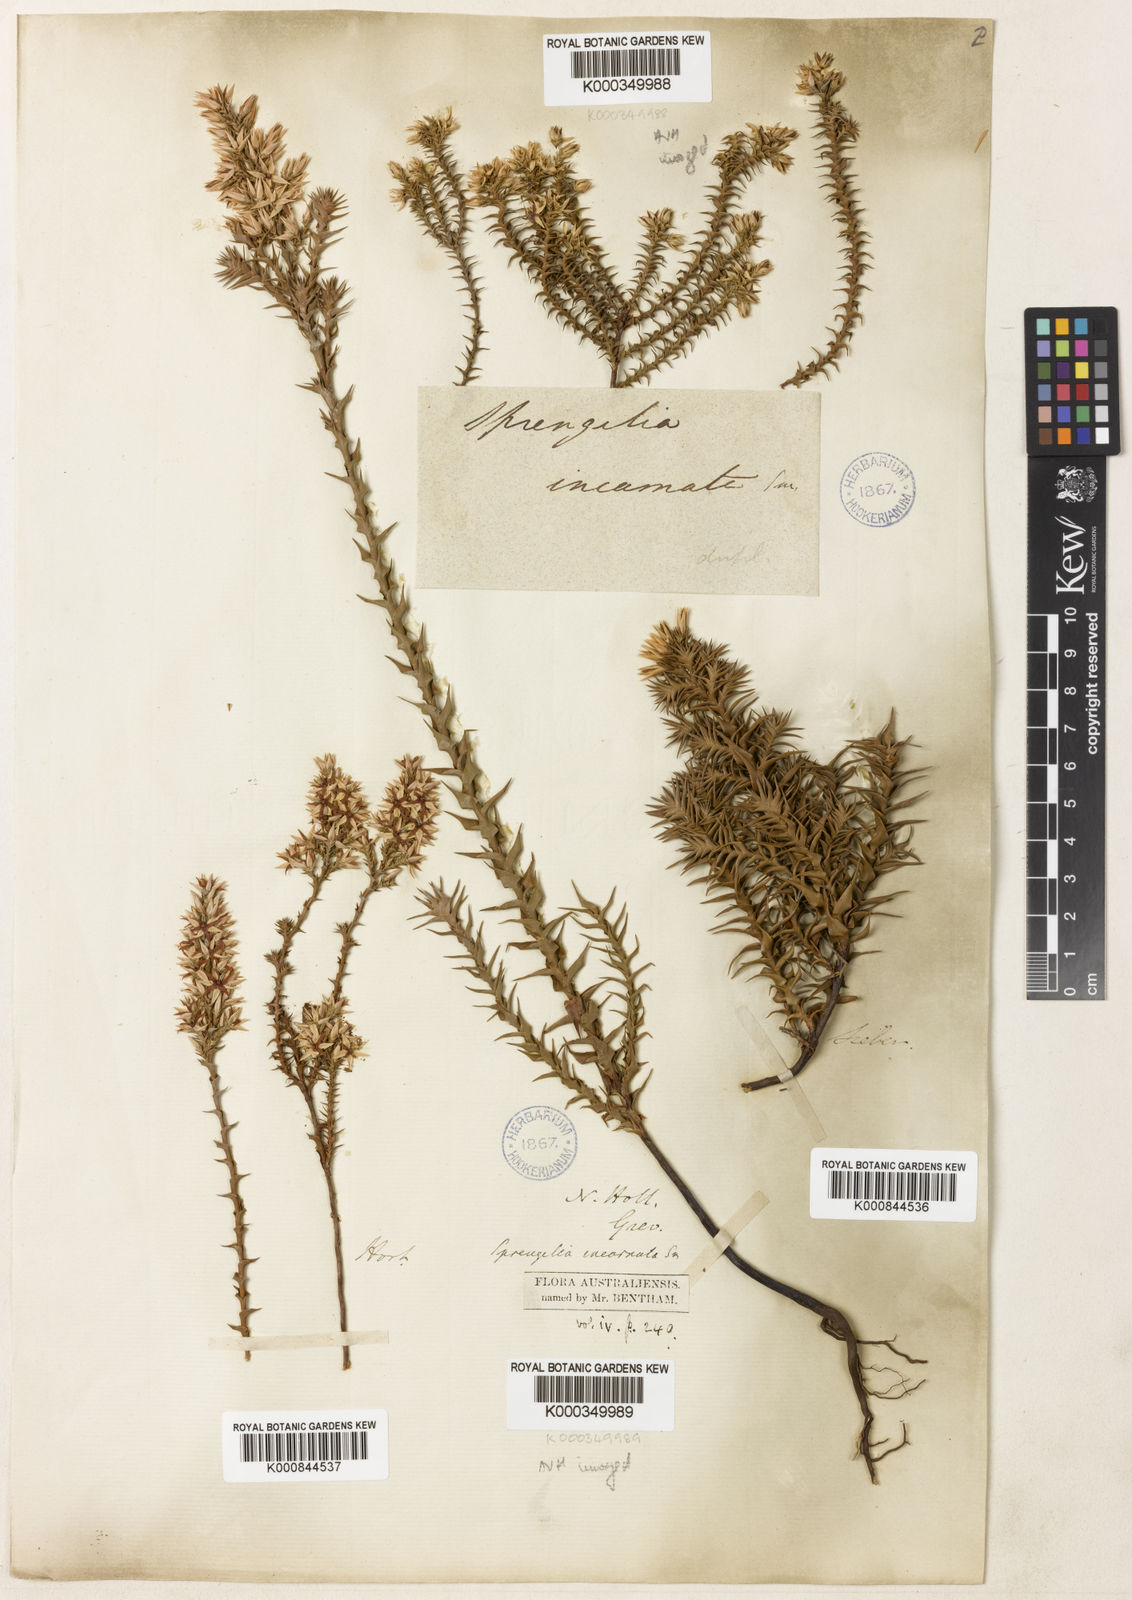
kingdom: Plantae
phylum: Tracheophyta
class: Magnoliopsida
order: Ericales
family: Ericaceae
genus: Sprengelia
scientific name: Sprengelia incarnata
